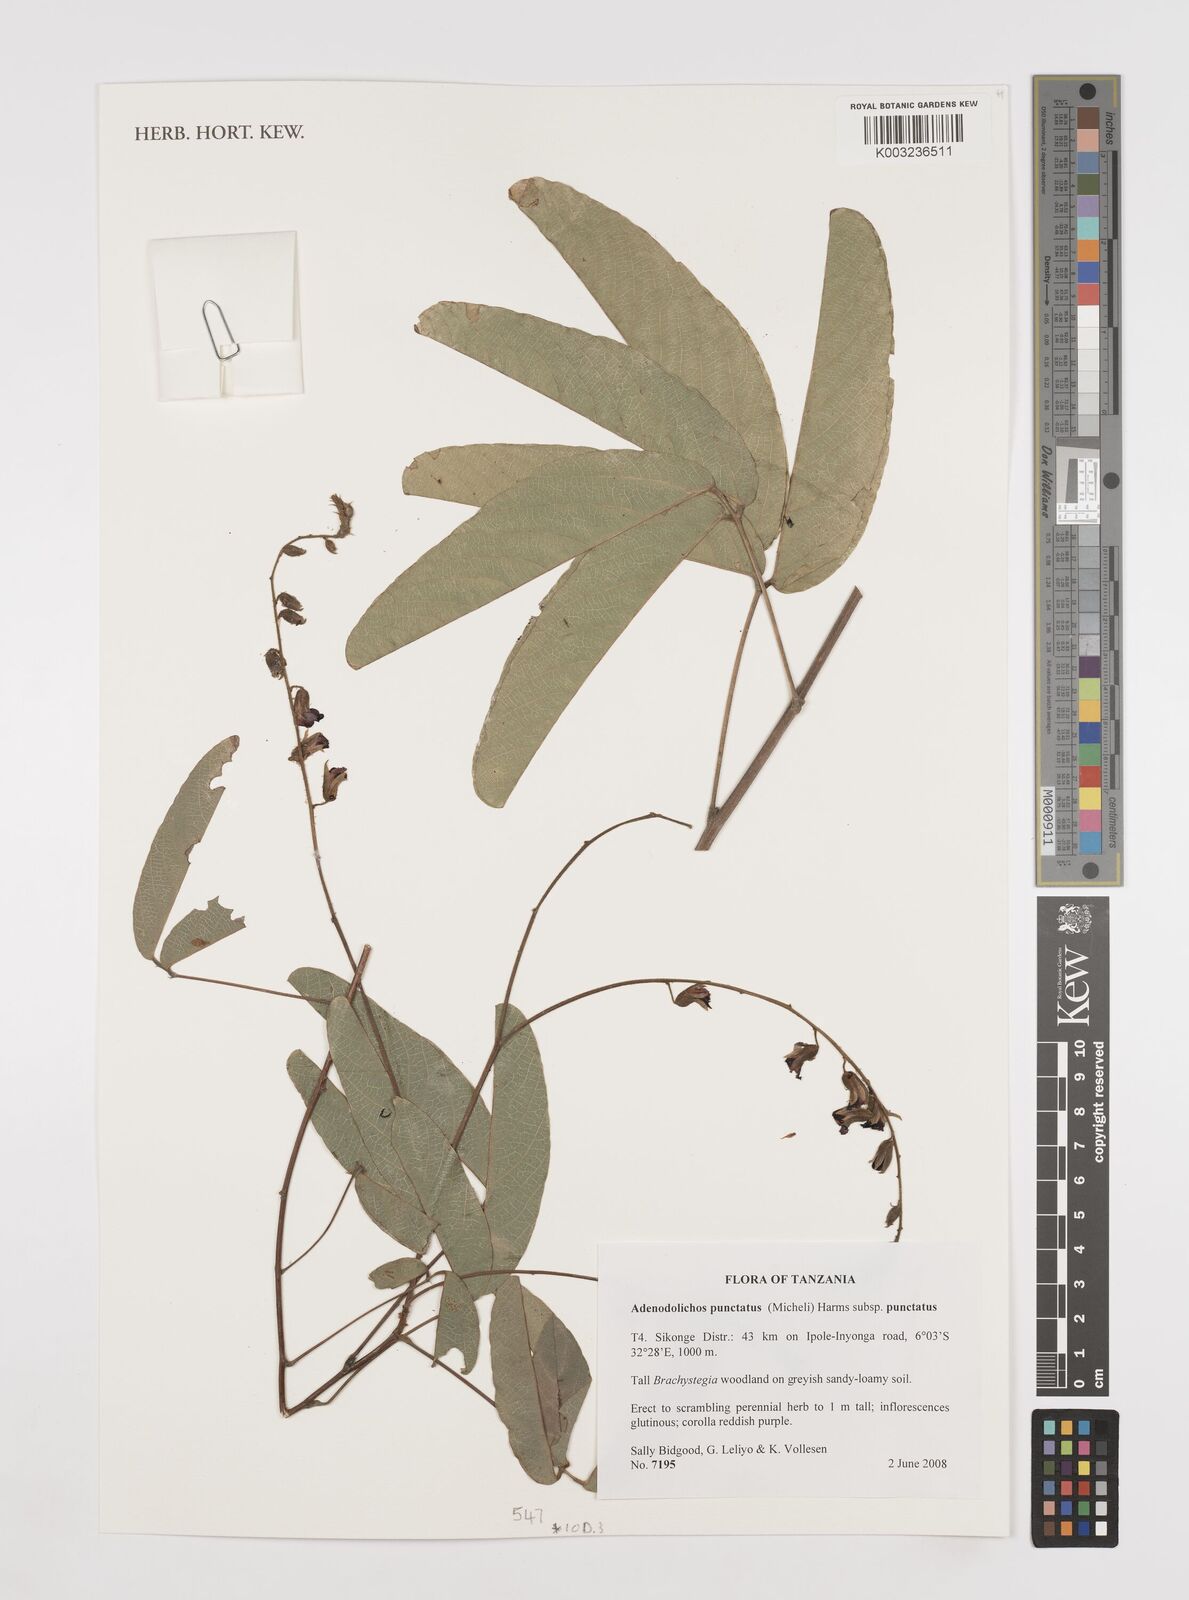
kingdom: Plantae
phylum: Tracheophyta
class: Magnoliopsida
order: Fabales
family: Fabaceae
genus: Adenodolichos
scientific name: Adenodolichos punctatus
